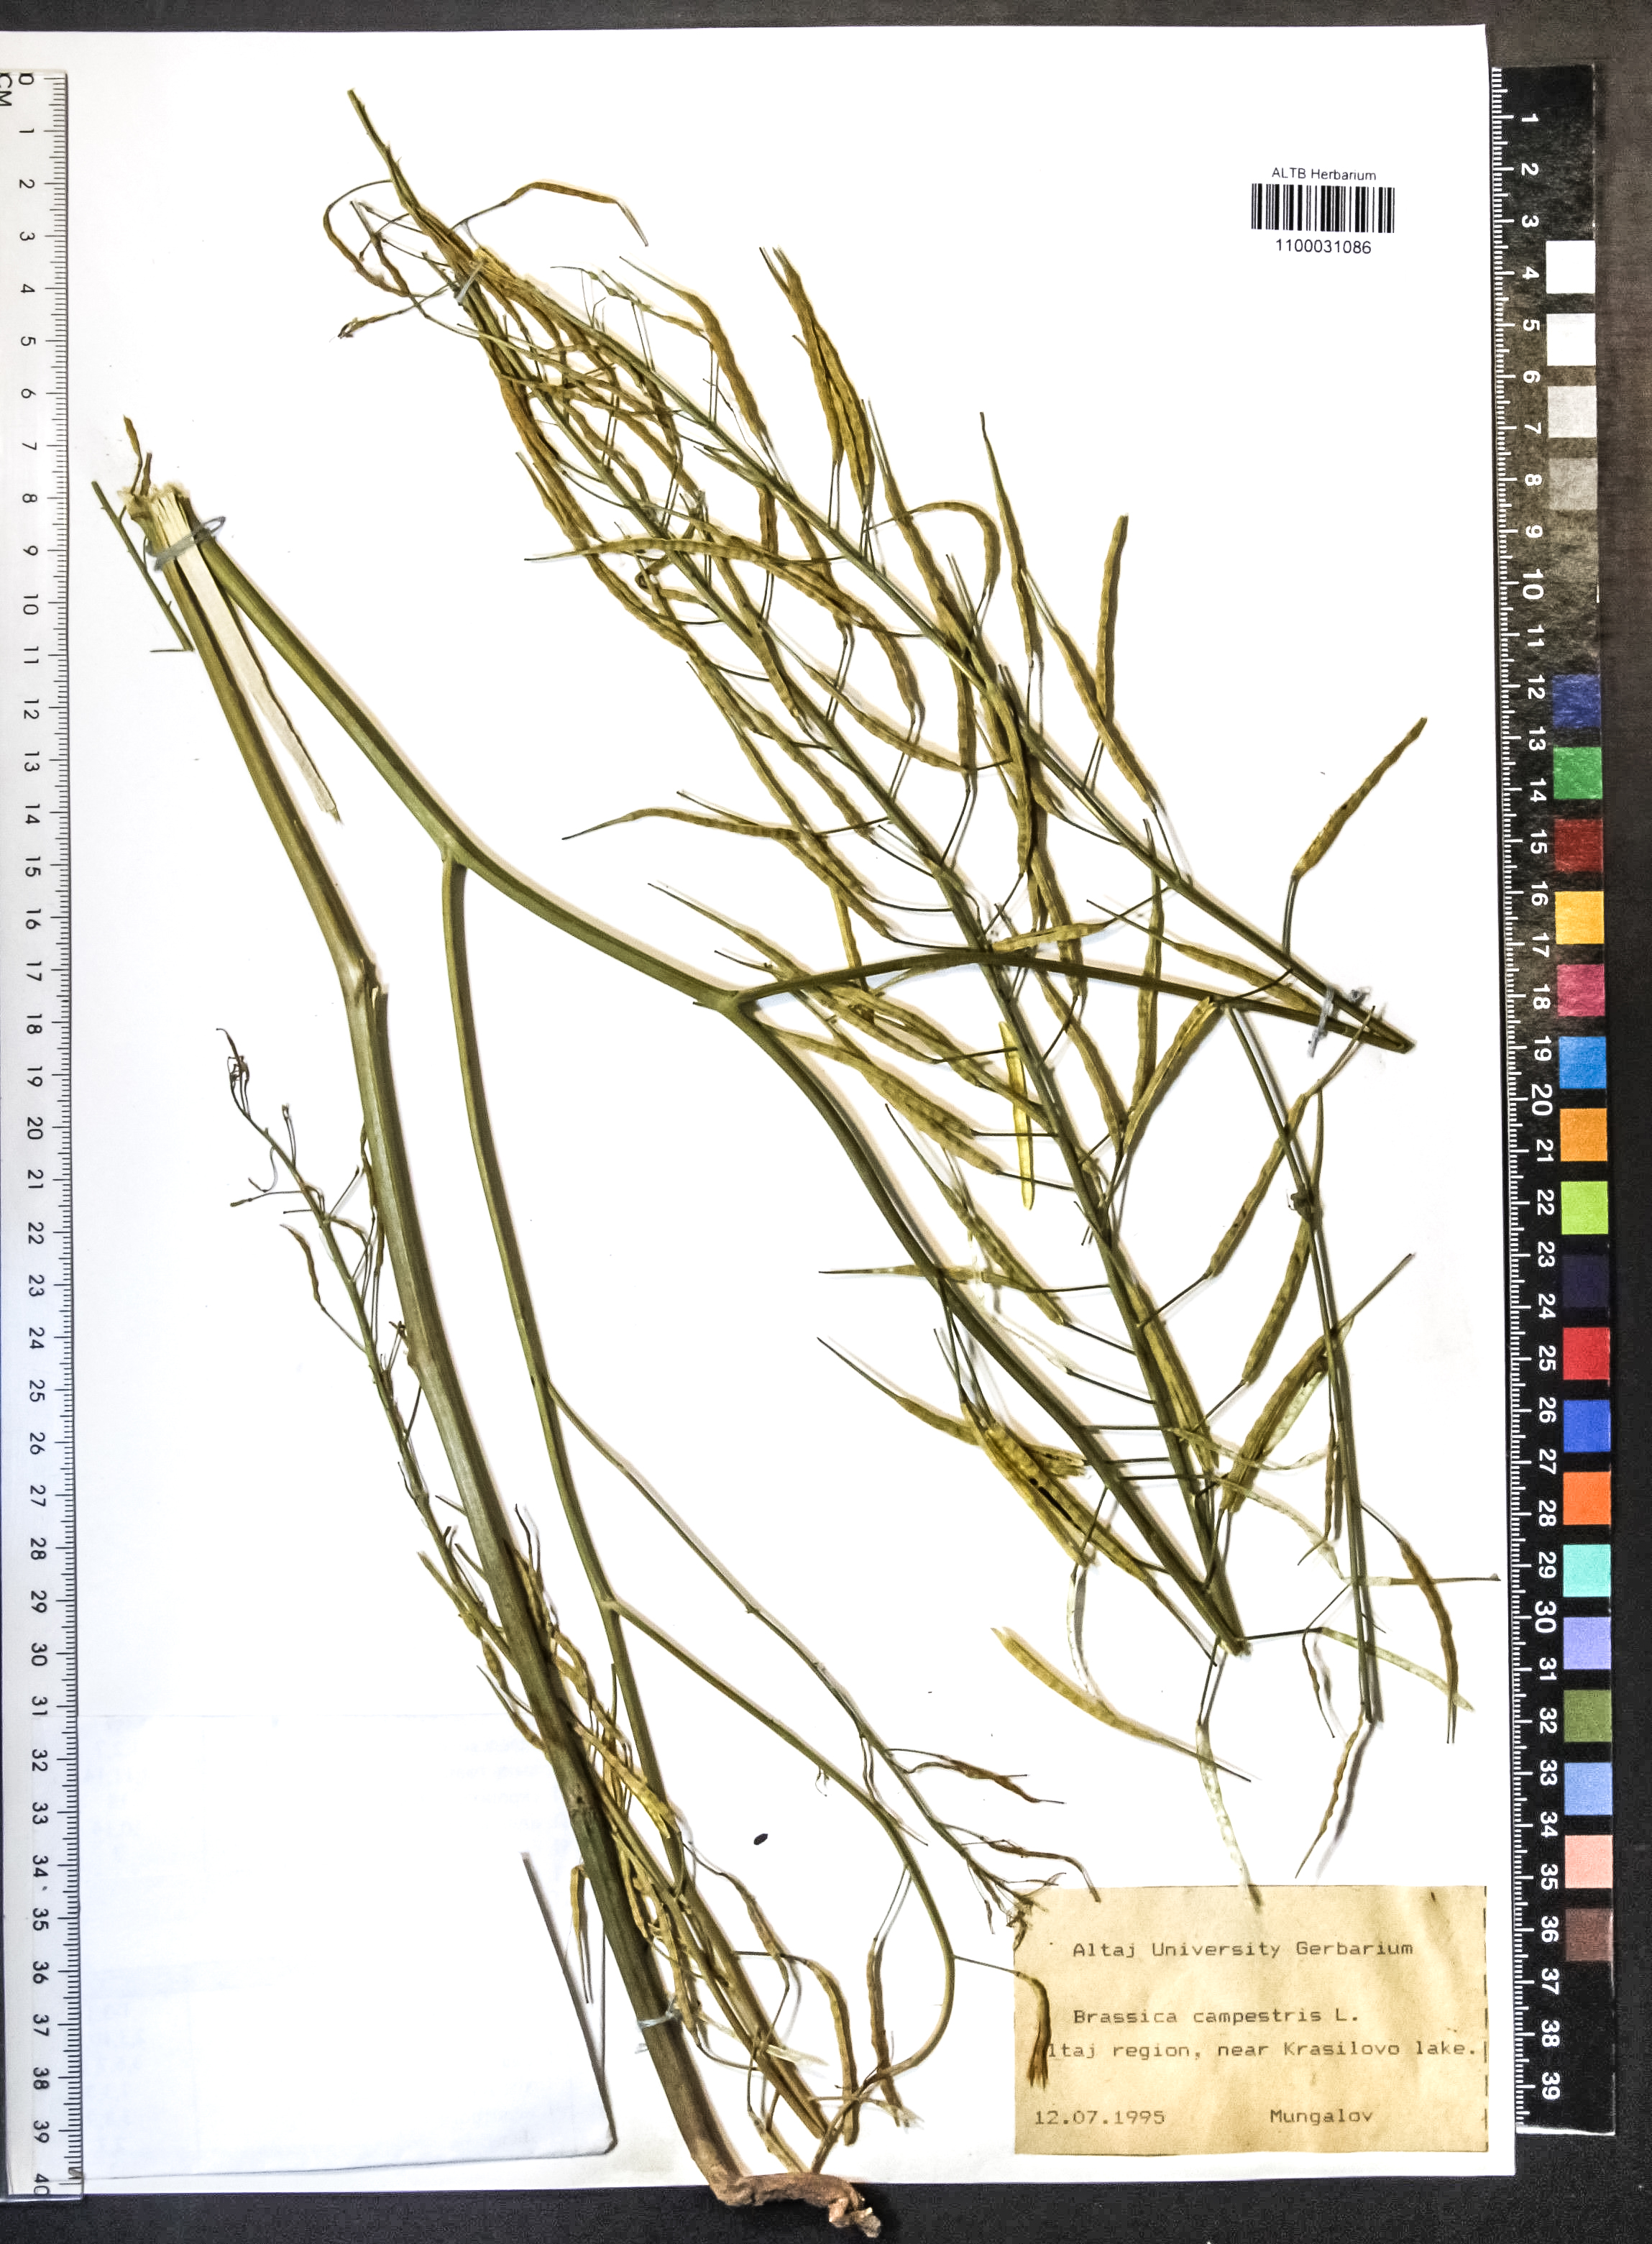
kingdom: Plantae
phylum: Tracheophyta
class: Magnoliopsida
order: Brassicales
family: Brassicaceae
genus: Brassica
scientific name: Brassica rapa
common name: Field mustard
